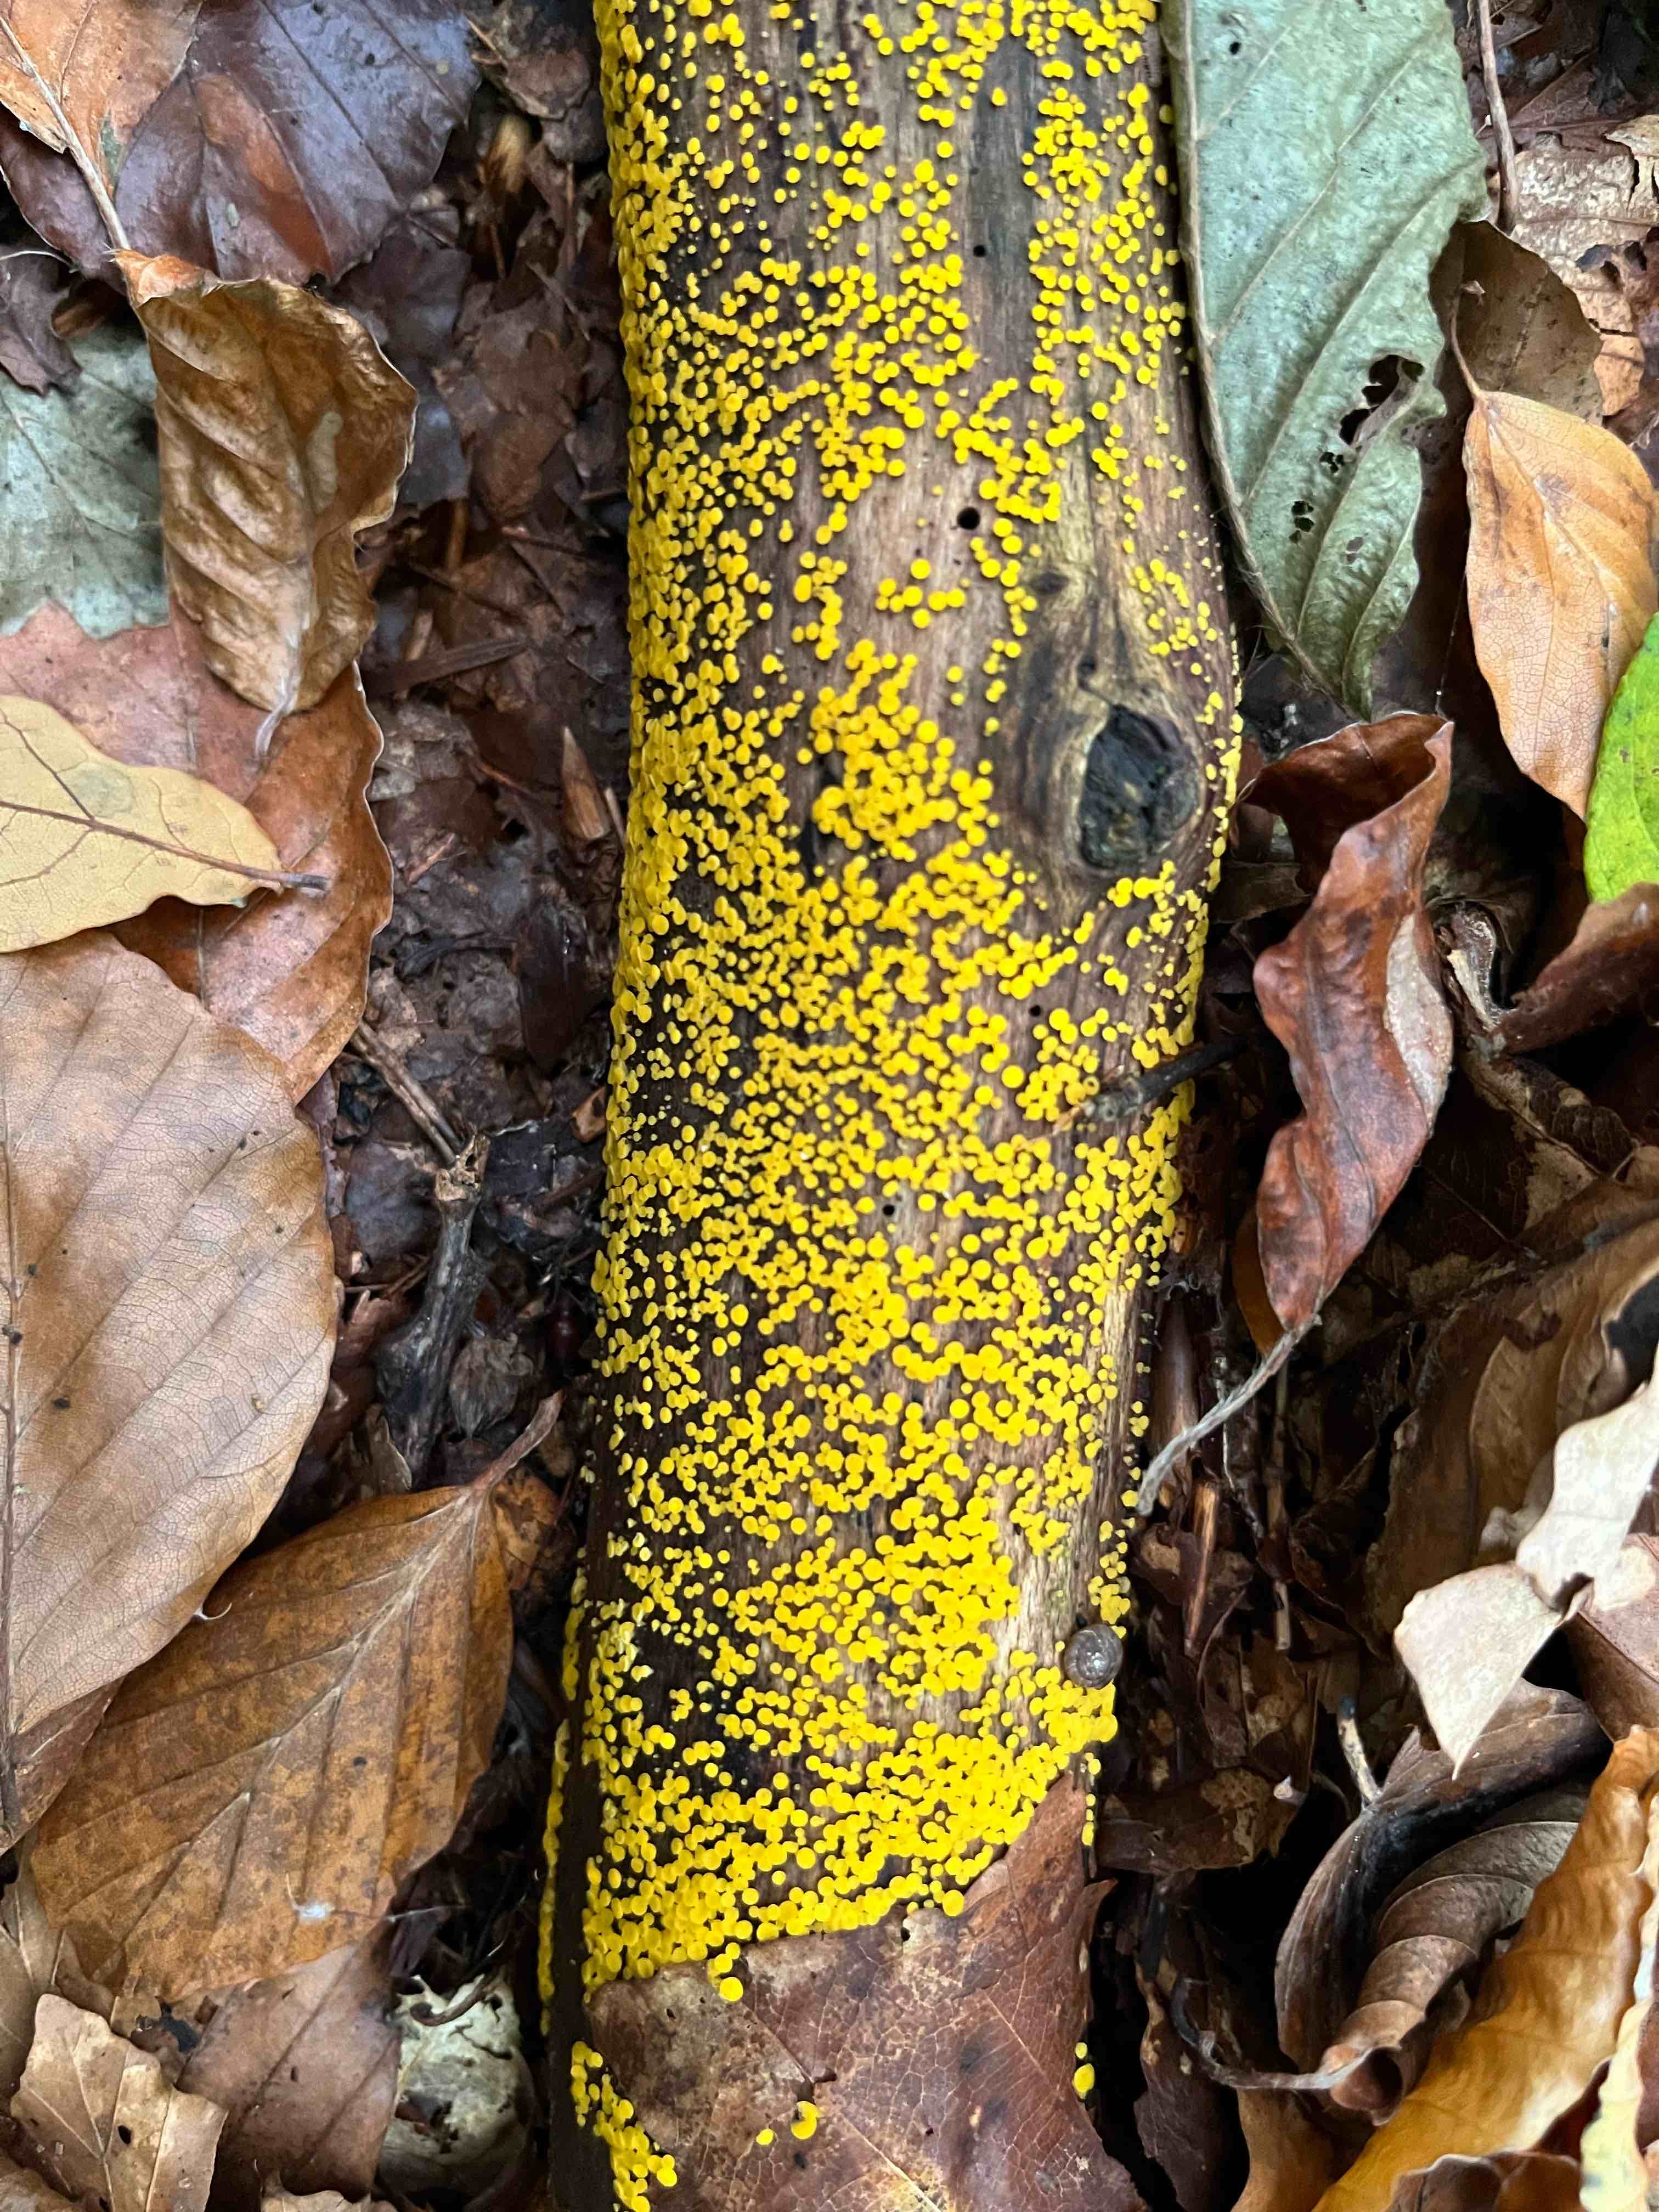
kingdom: Fungi
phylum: Ascomycota
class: Leotiomycetes
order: Helotiales
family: Pezizellaceae
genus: Calycina
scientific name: Calycina citrina
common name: almindelig gulskive
